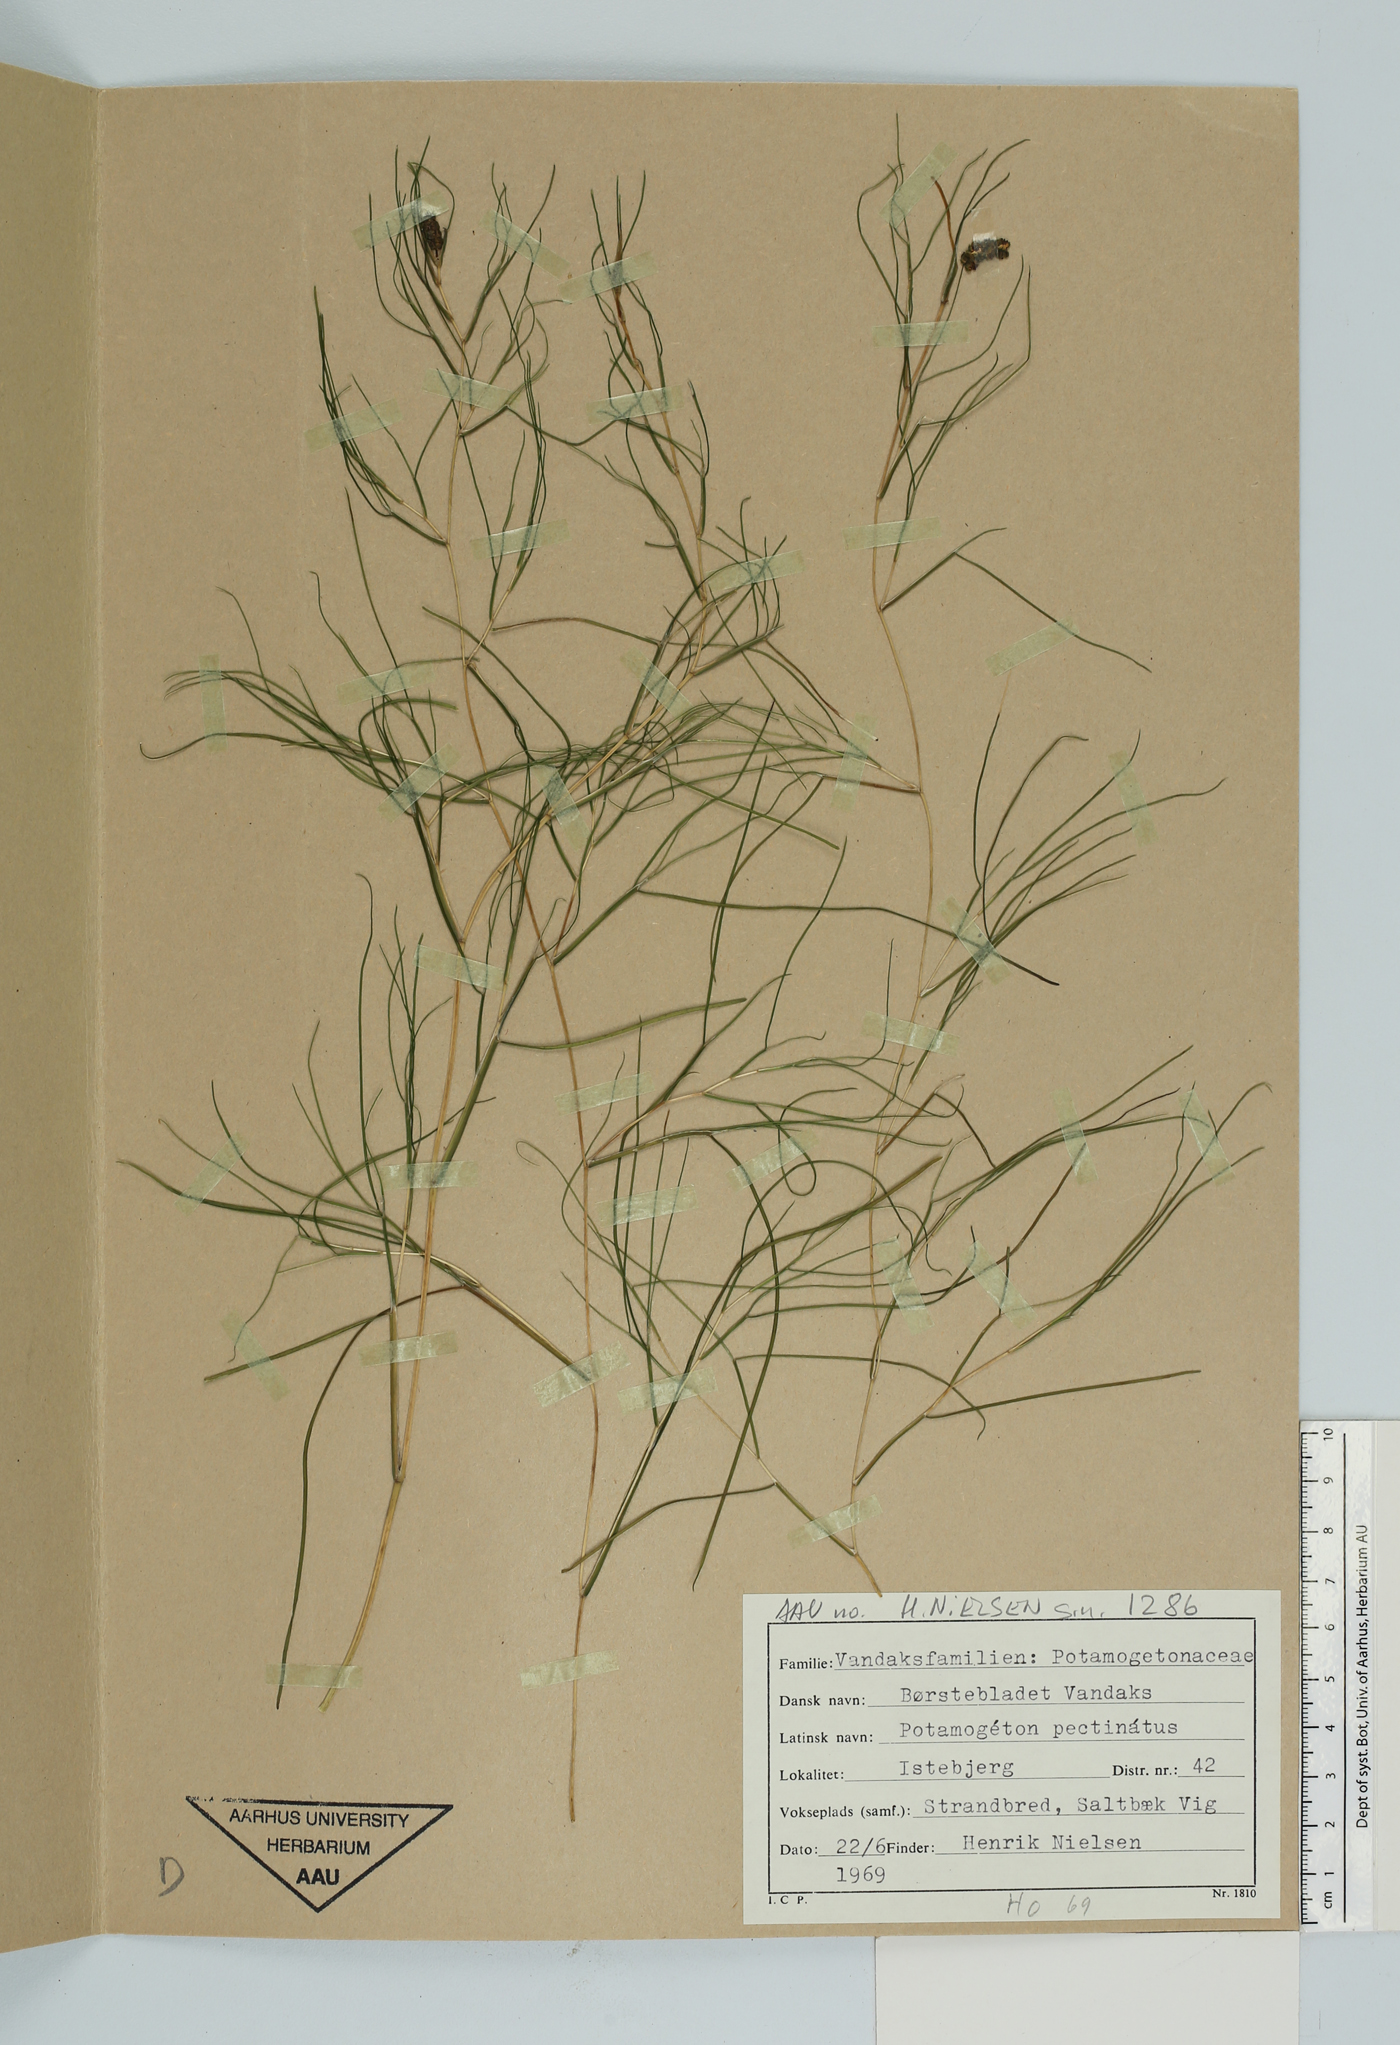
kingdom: Plantae
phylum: Tracheophyta
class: Liliopsida
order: Alismatales
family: Potamogetonaceae
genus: Stuckenia
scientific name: Stuckenia pectinata
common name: Sago pondweed
